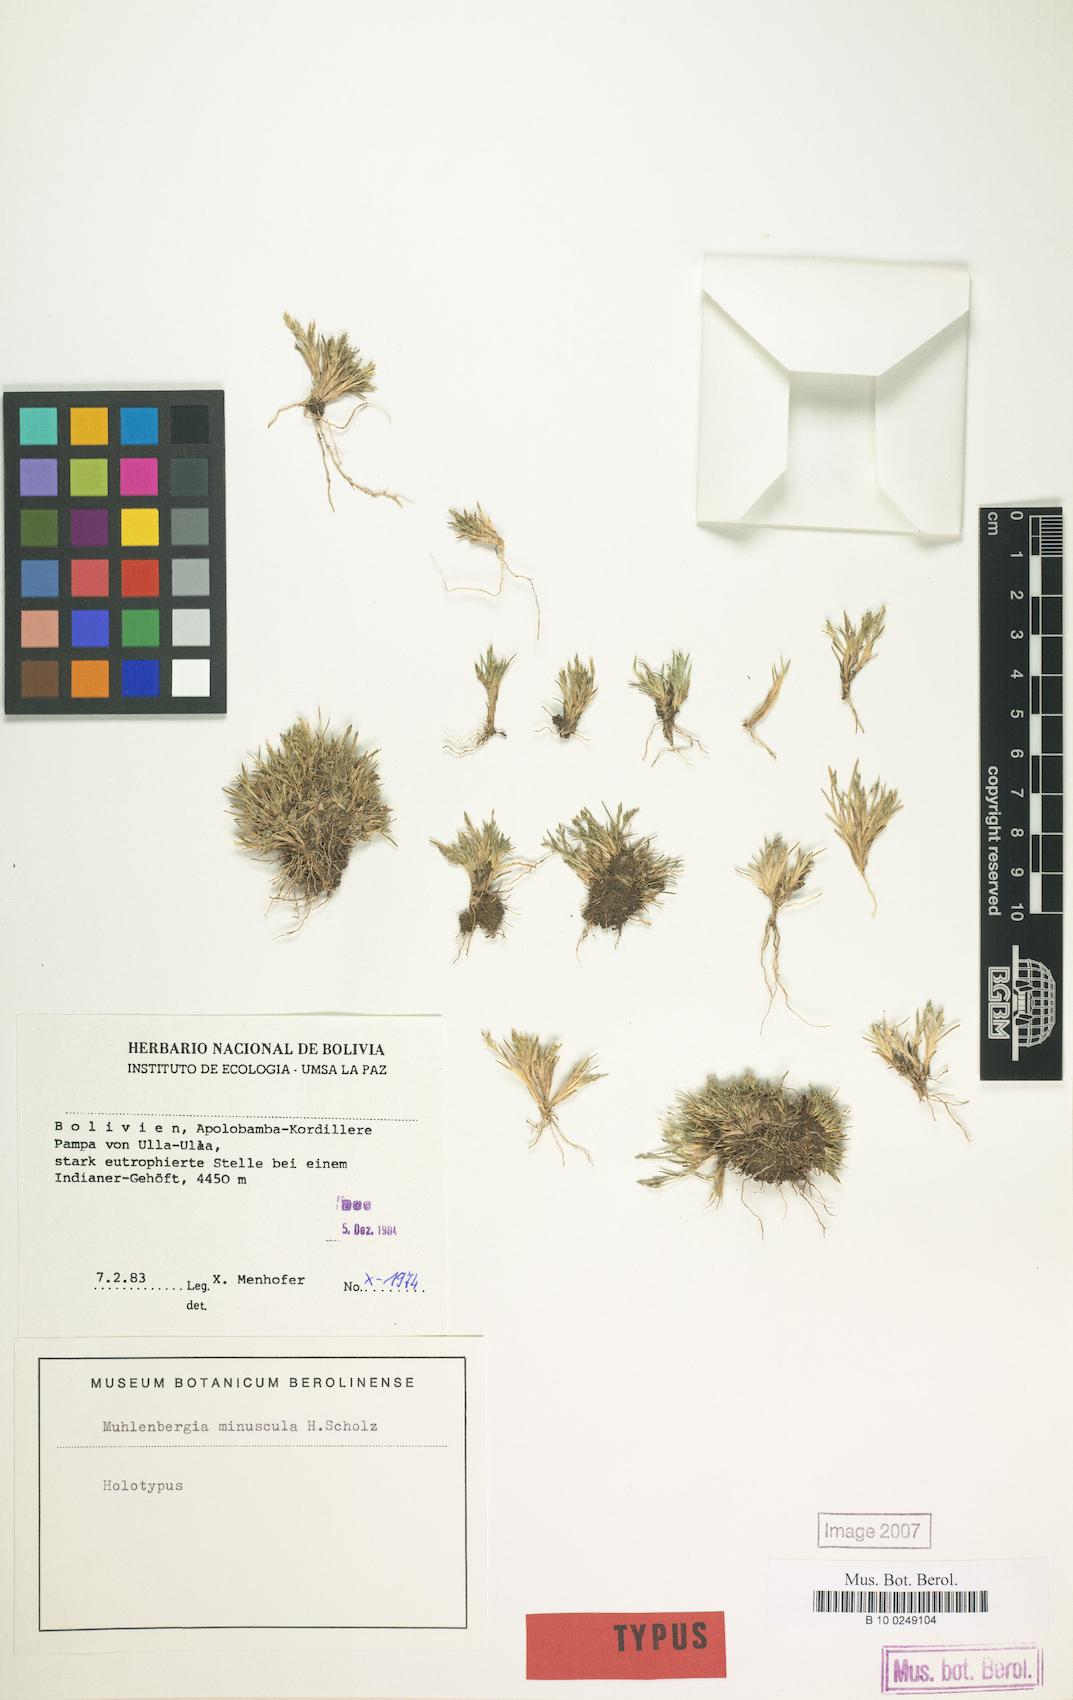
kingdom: Plantae
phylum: Tracheophyta
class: Liliopsida
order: Poales
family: Poaceae
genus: Muhlenbergia
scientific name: Muhlenbergia ligularis
